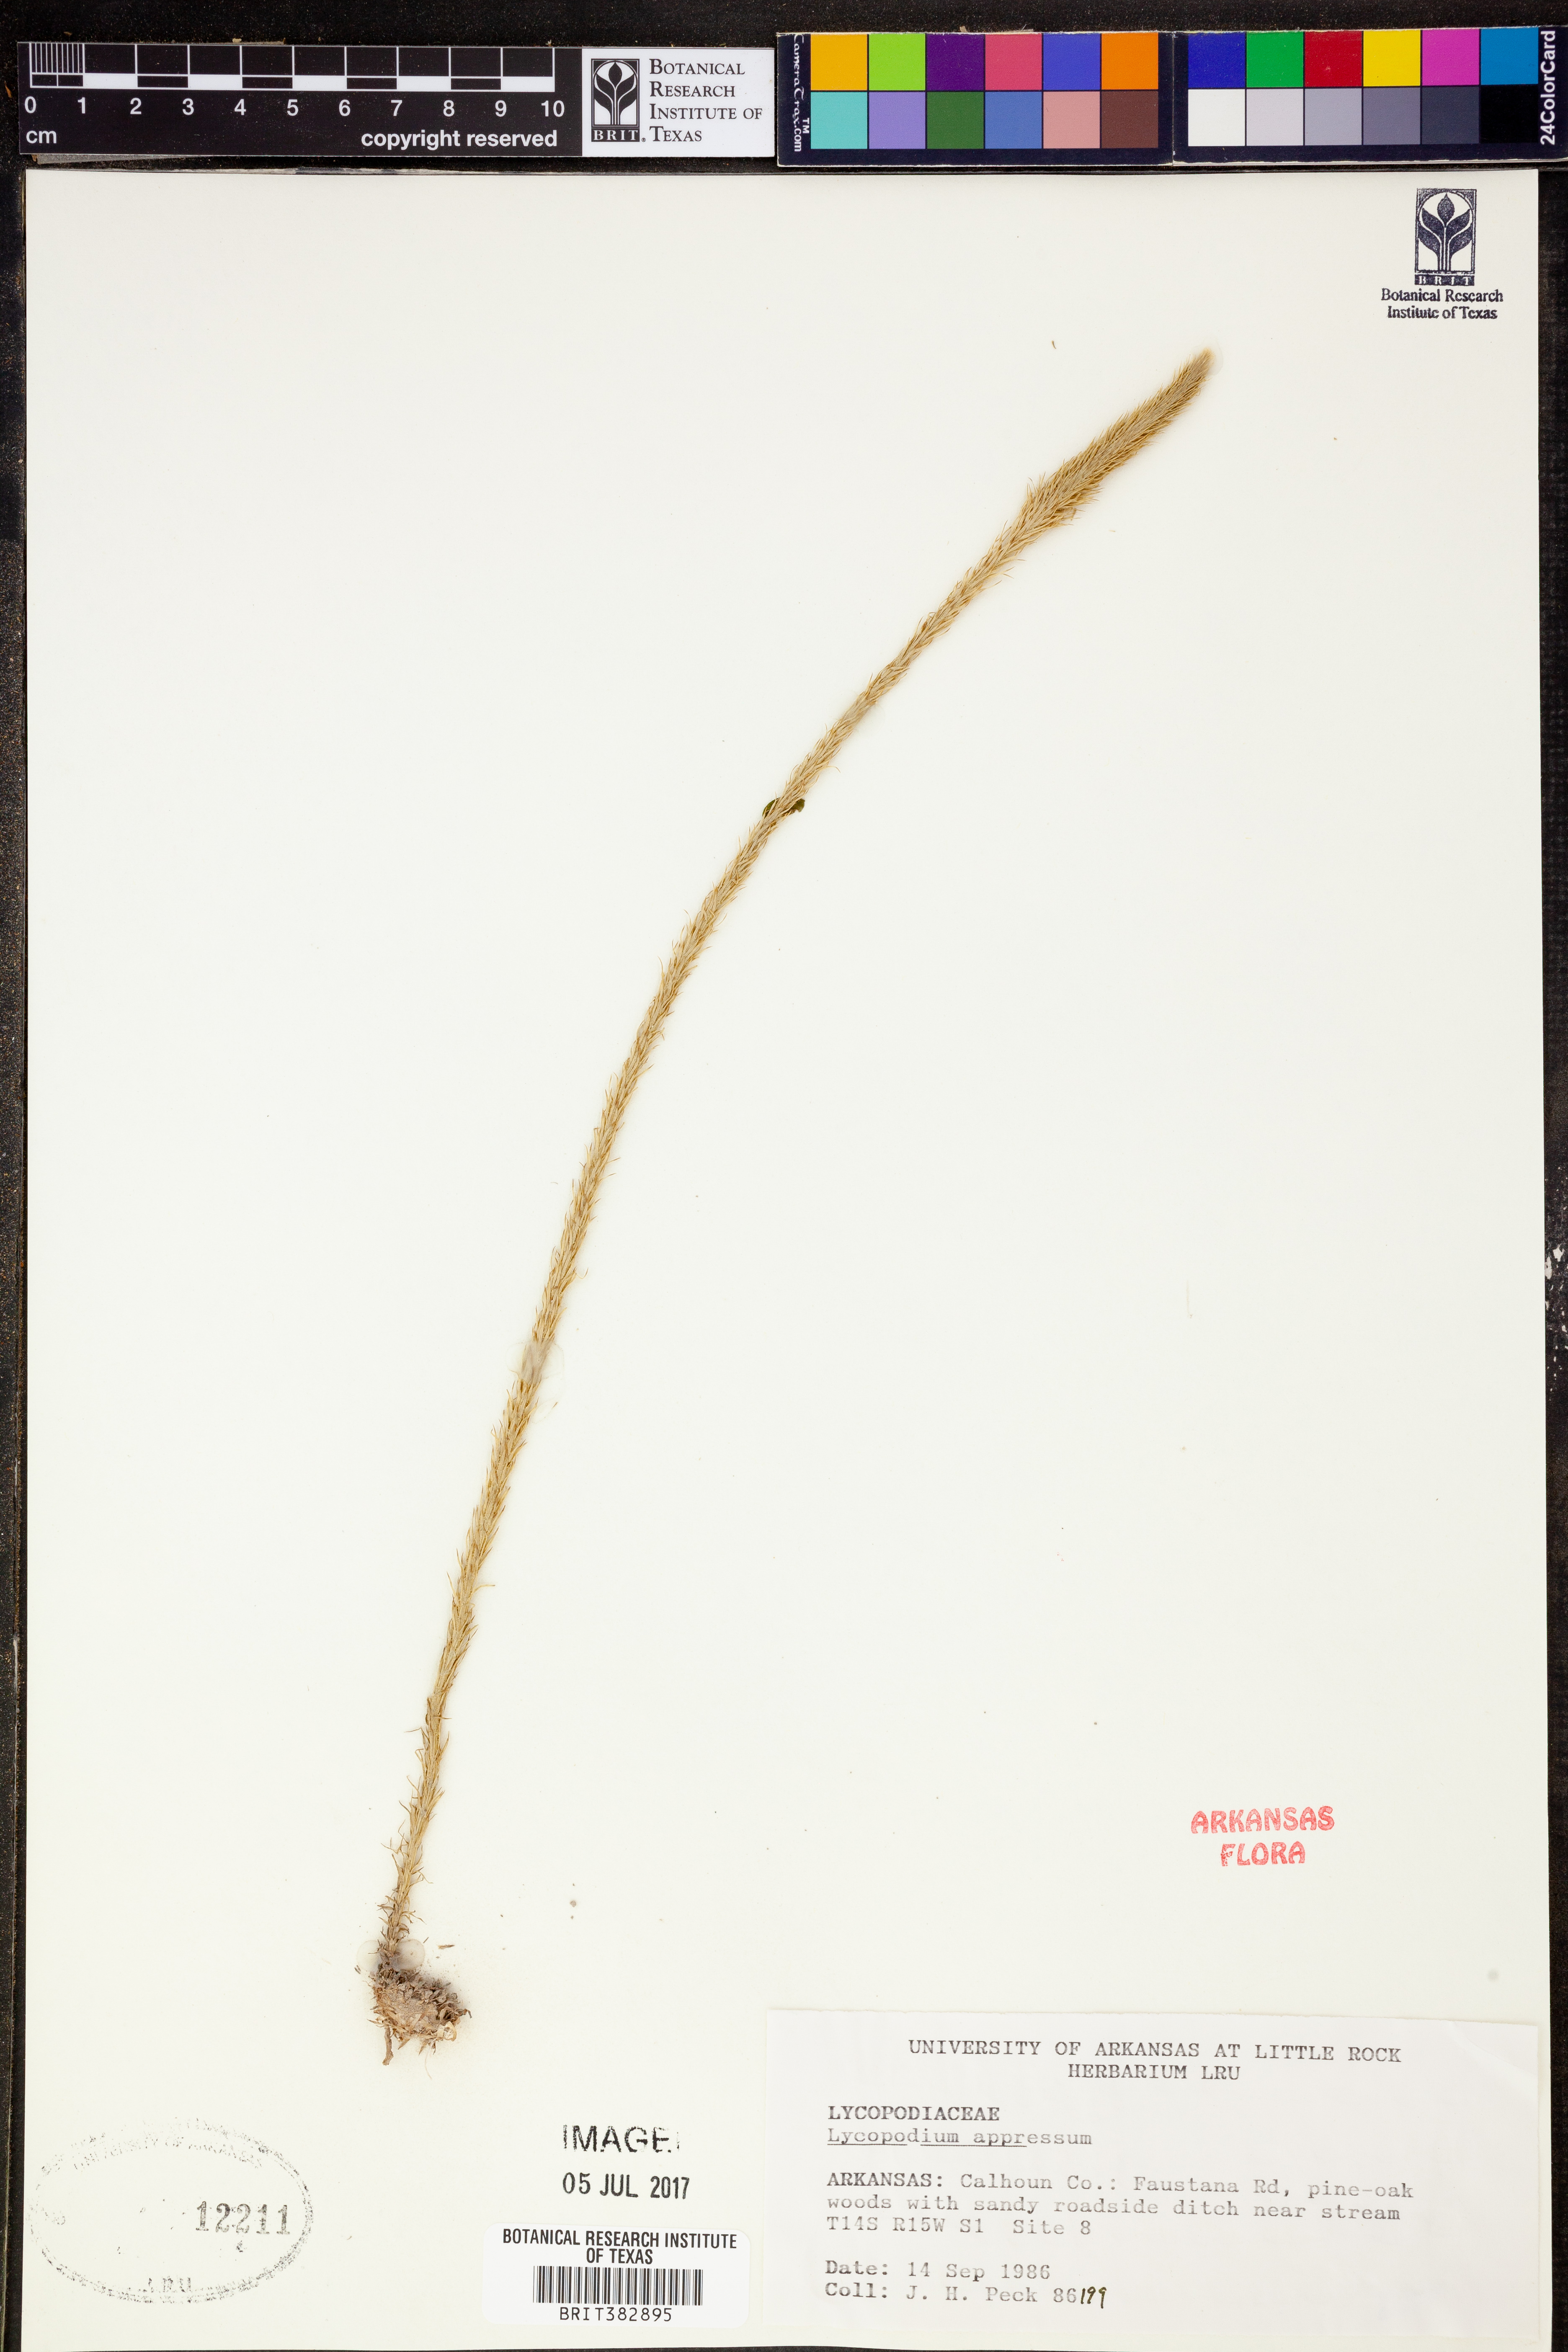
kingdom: Plantae
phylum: Tracheophyta
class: Lycopodiopsida
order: Lycopodiales
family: Lycopodiaceae
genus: Lycopodiella
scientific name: Lycopodiella appressa
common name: Appressed bog clubmoss
